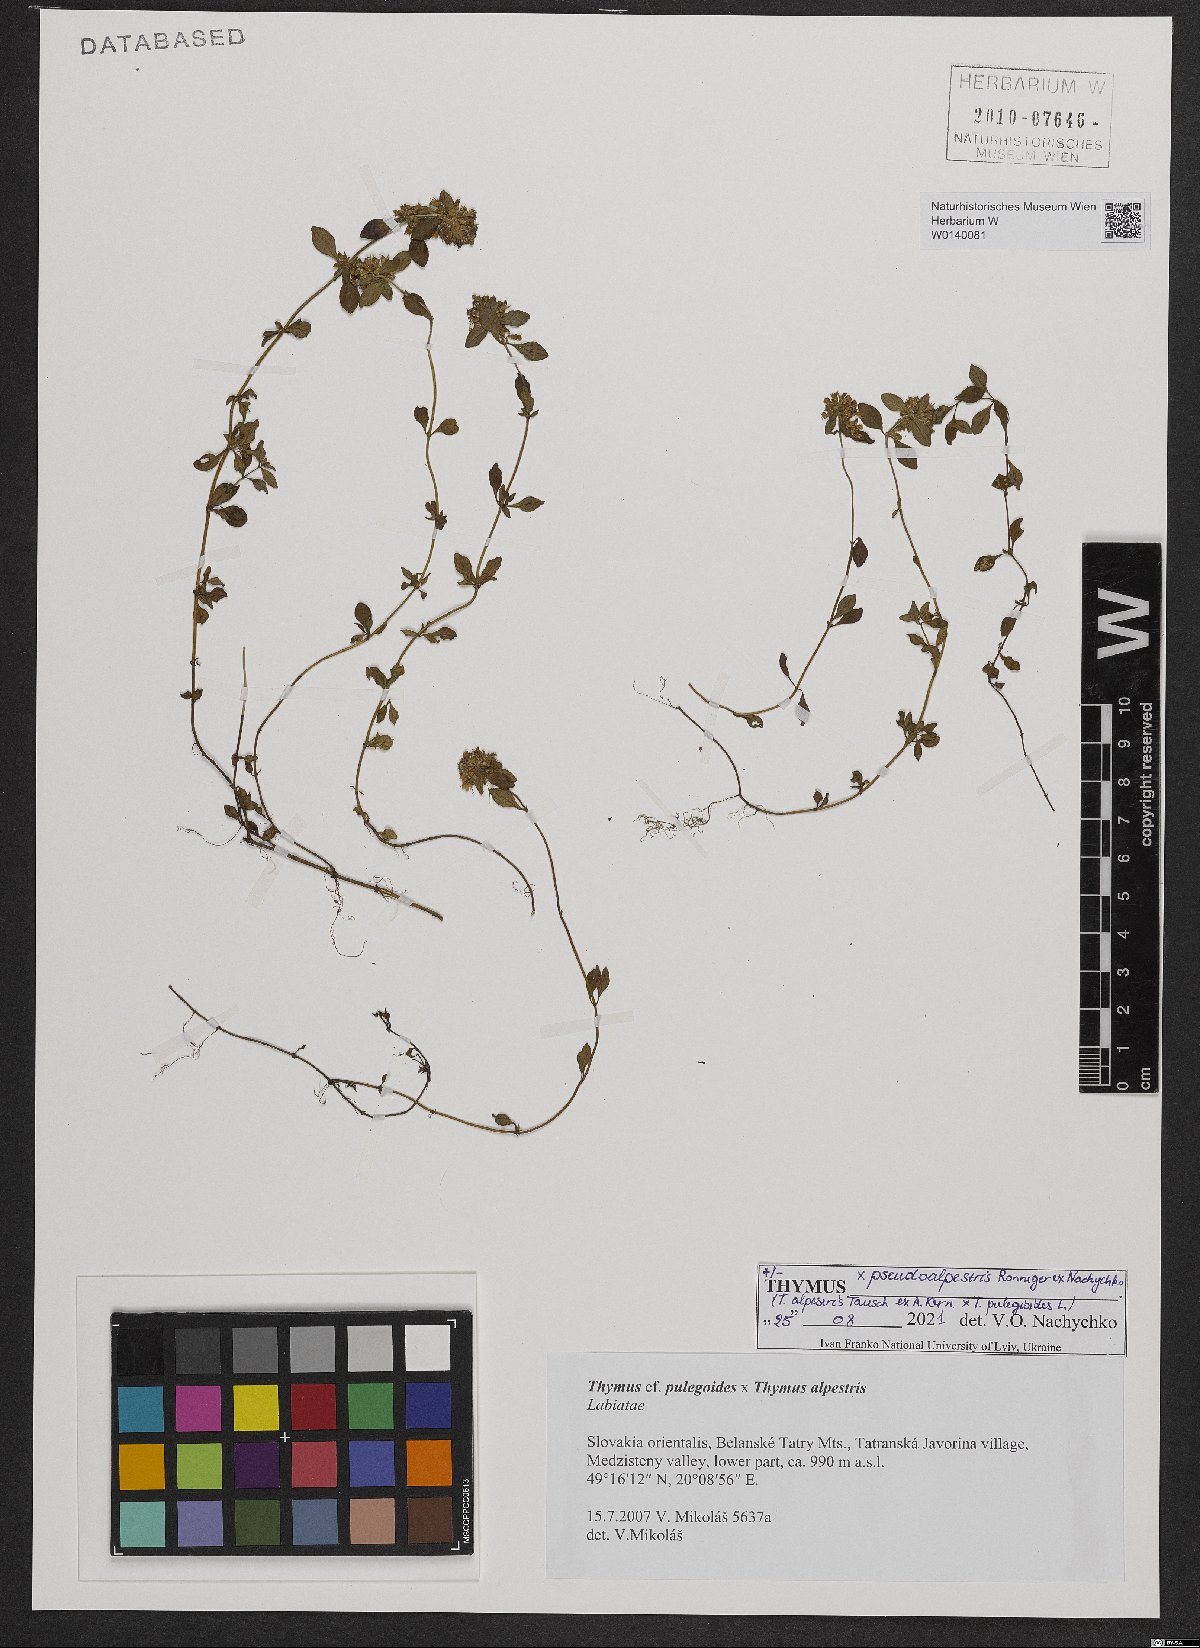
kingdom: Plantae
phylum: Tracheophyta
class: Magnoliopsida
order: Lamiales
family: Lamiaceae
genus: Thymus
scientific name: Thymus
